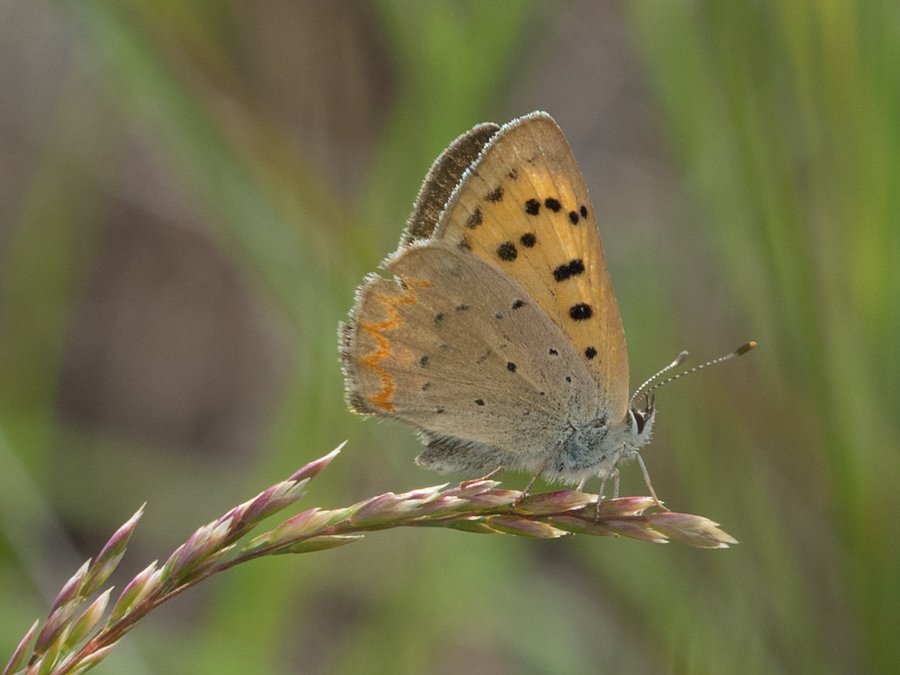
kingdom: Animalia
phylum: Arthropoda
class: Insecta
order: Lepidoptera
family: Sesiidae
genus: Sesia
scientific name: Sesia Lycaena helloides
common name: Purplish Copper
